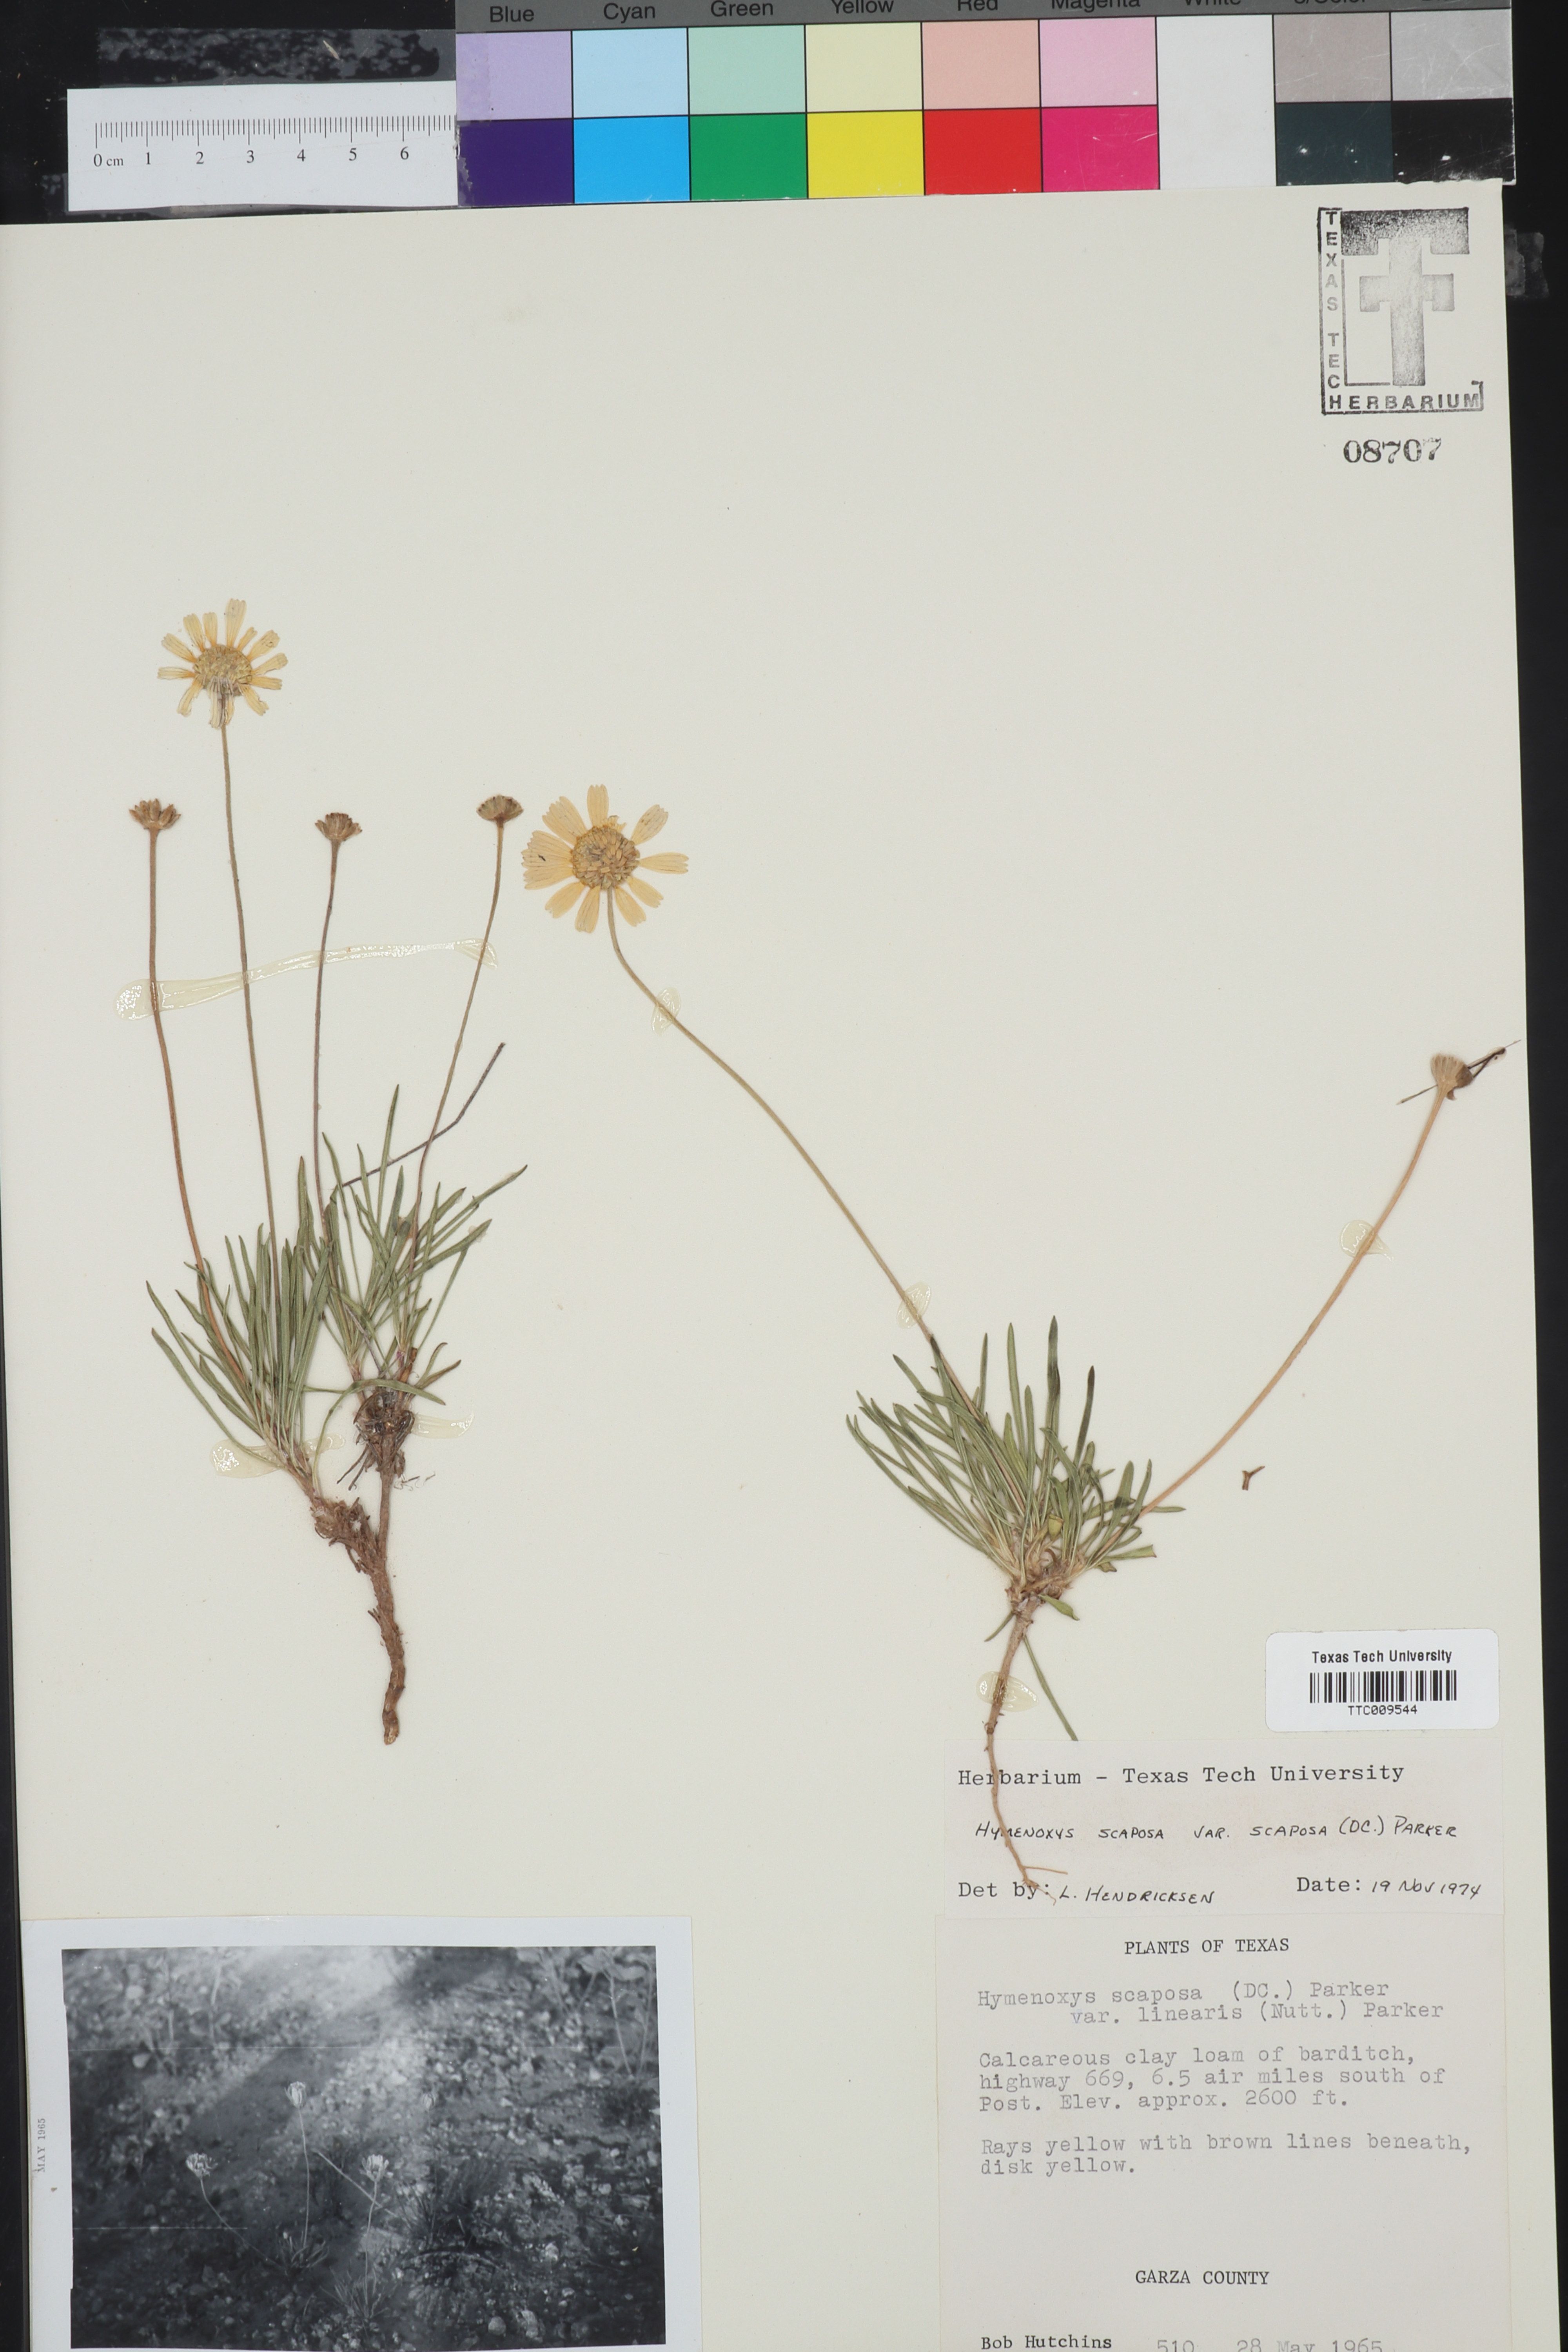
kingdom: Plantae
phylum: Tracheophyta
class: Magnoliopsida
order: Asterales
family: Asteraceae
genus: Tetraneuris
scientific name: Tetraneuris scaposa
